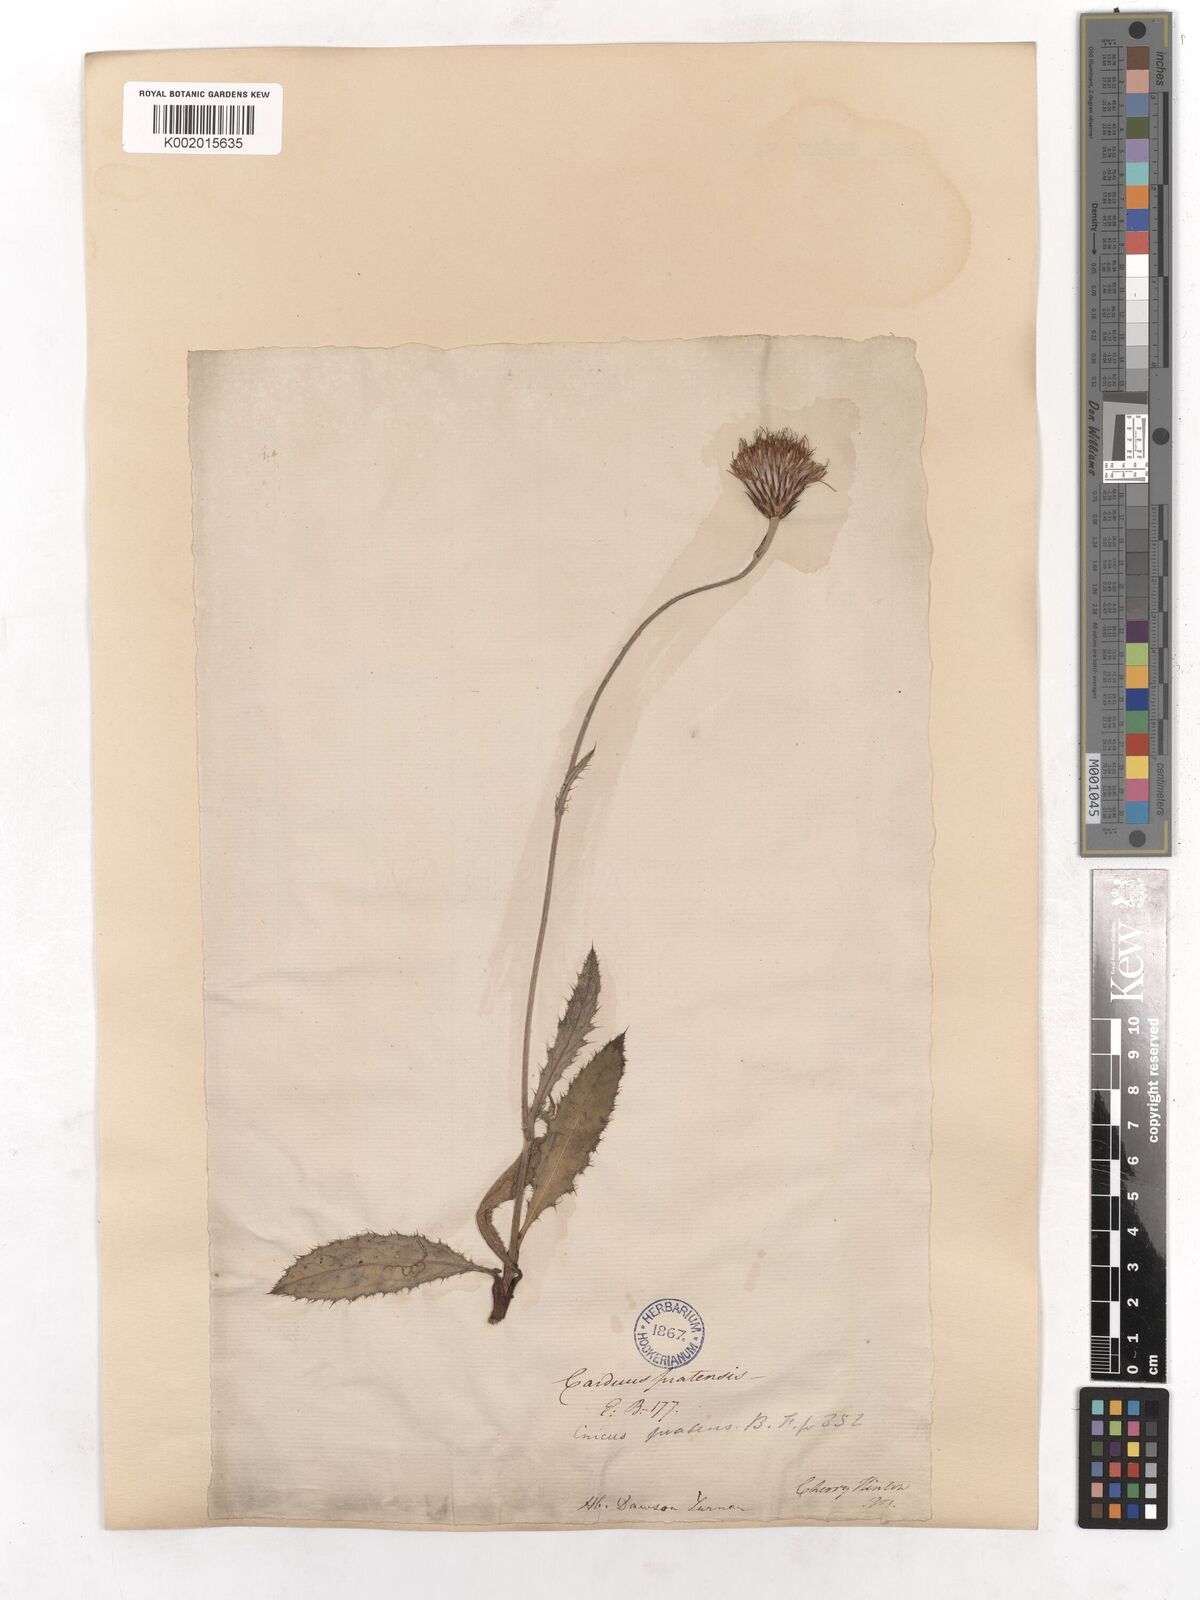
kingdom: Plantae
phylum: Tracheophyta
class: Magnoliopsida
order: Asterales
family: Asteraceae
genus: Cirsium
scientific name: Cirsium dissectum
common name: Meadow thistle
